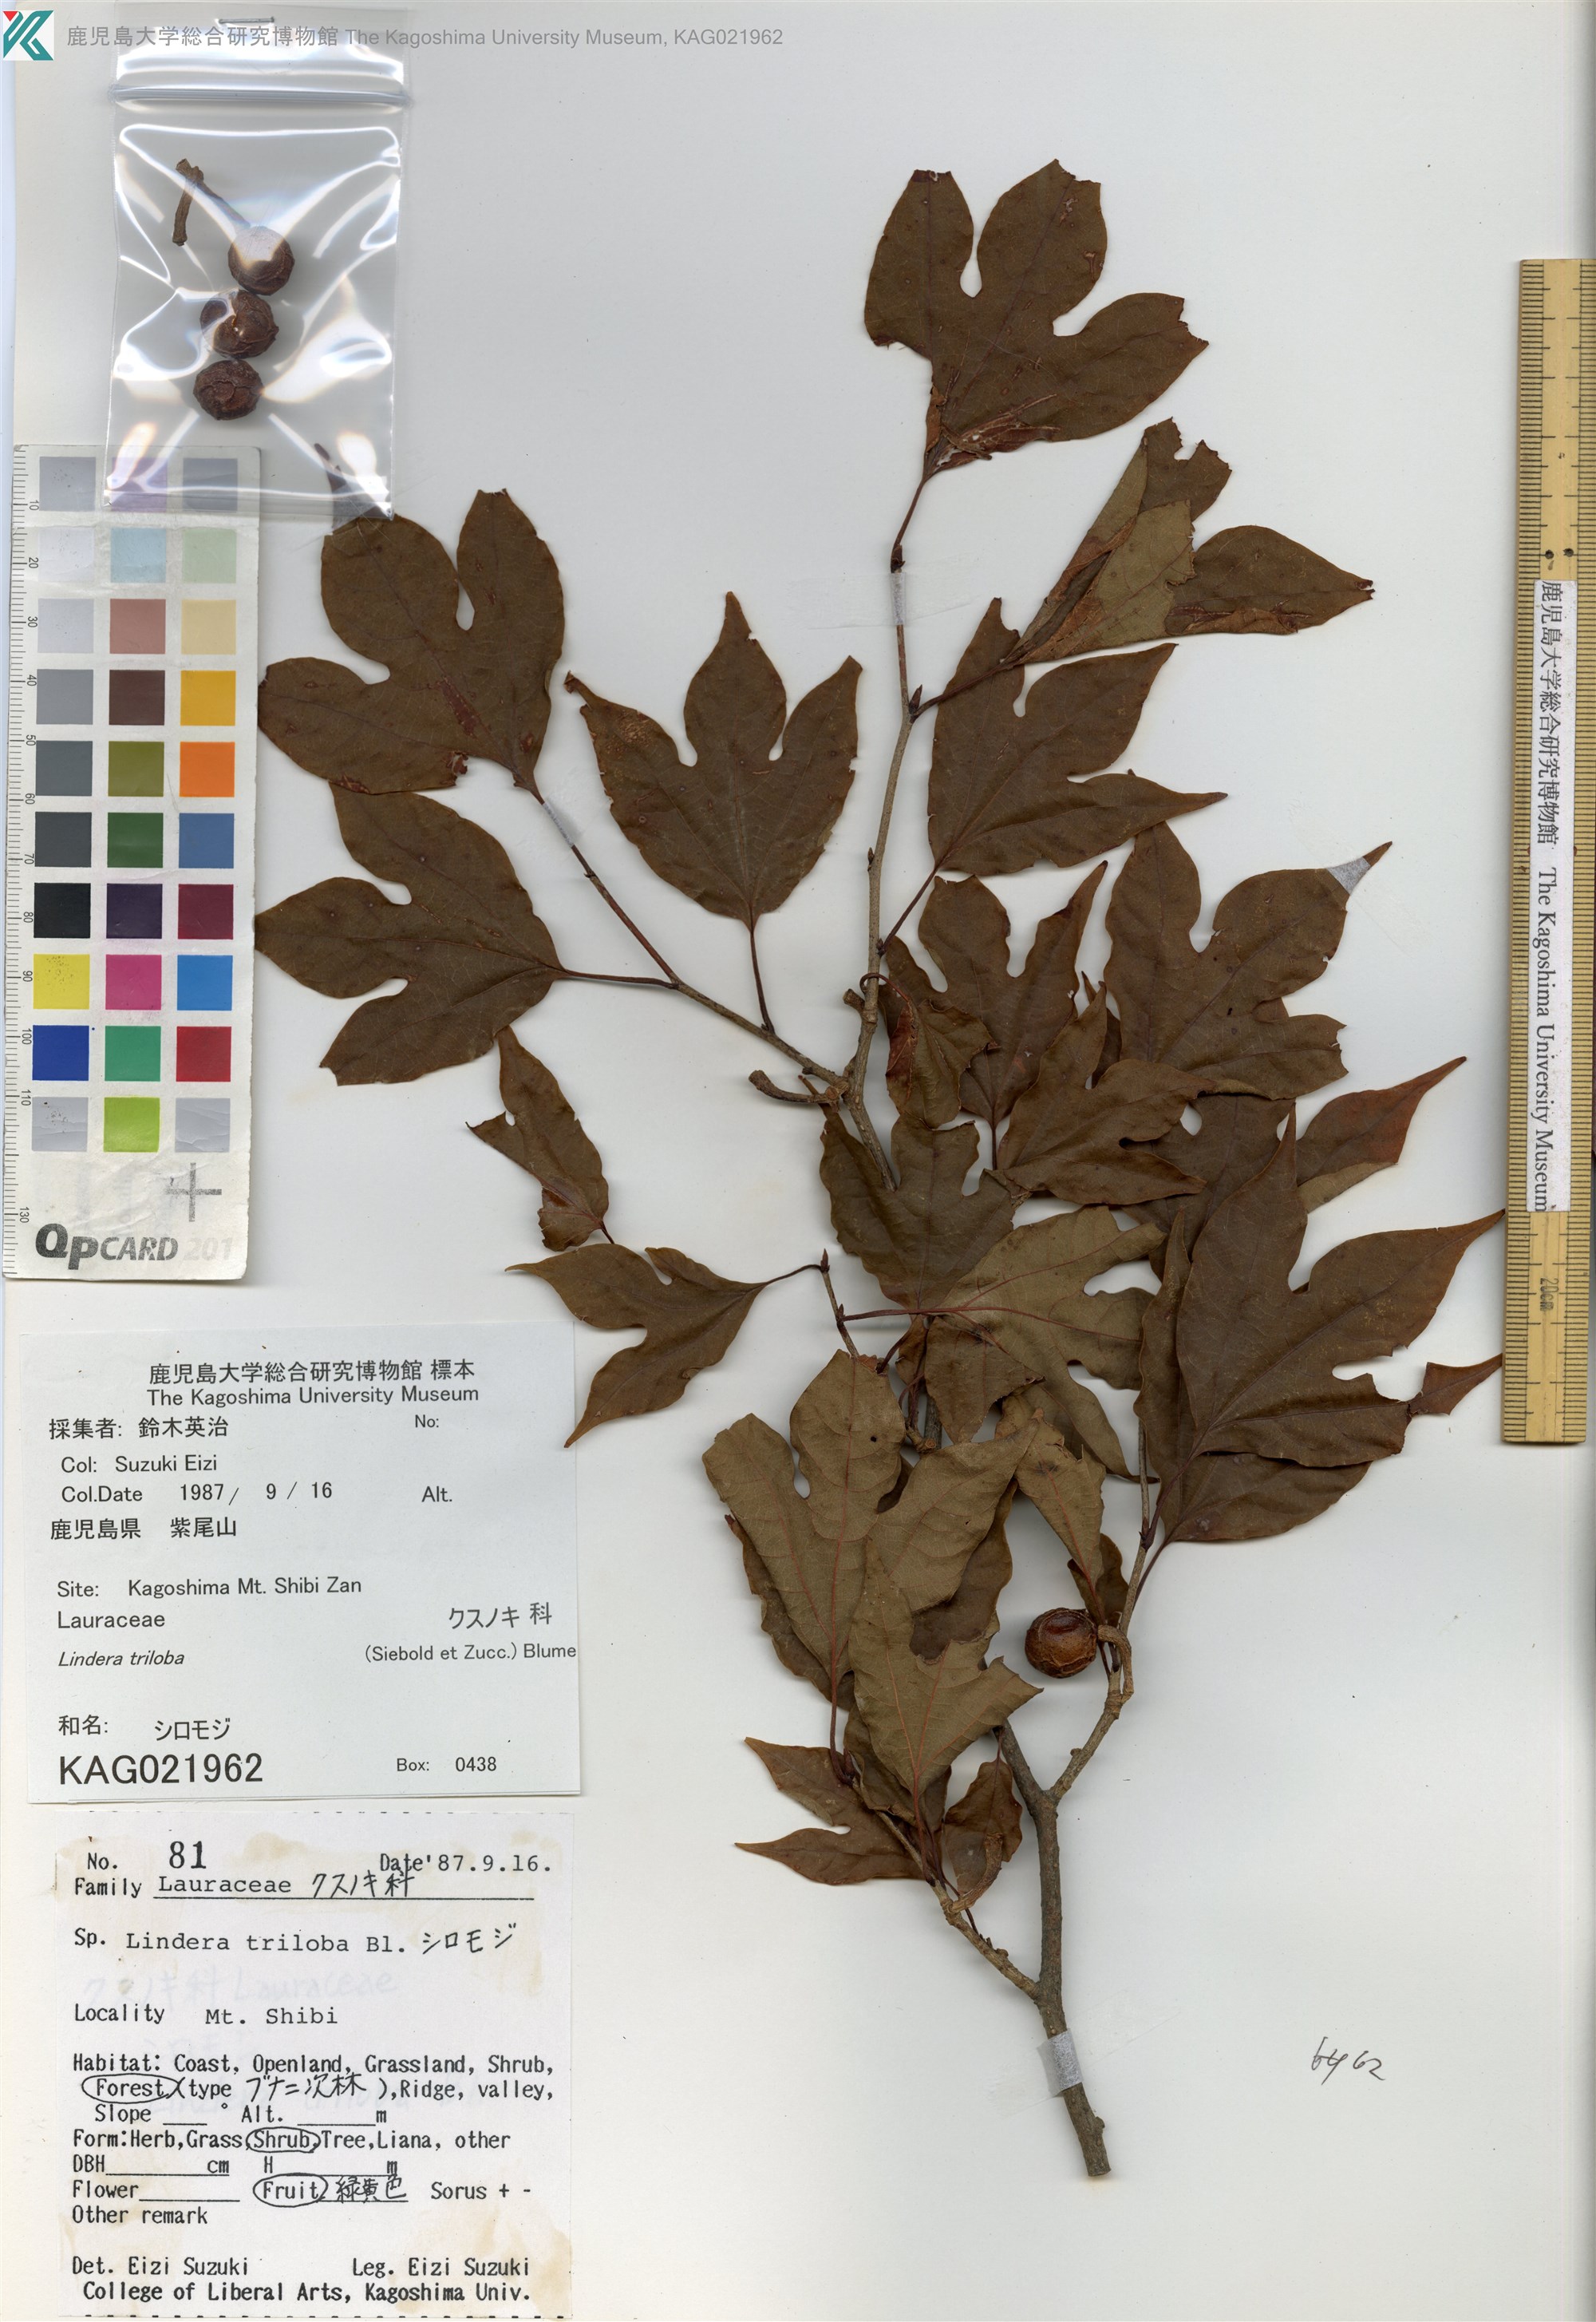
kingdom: Plantae
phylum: Tracheophyta
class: Magnoliopsida
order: Laurales
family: Lauraceae
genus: Lindera
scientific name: Lindera triloba
